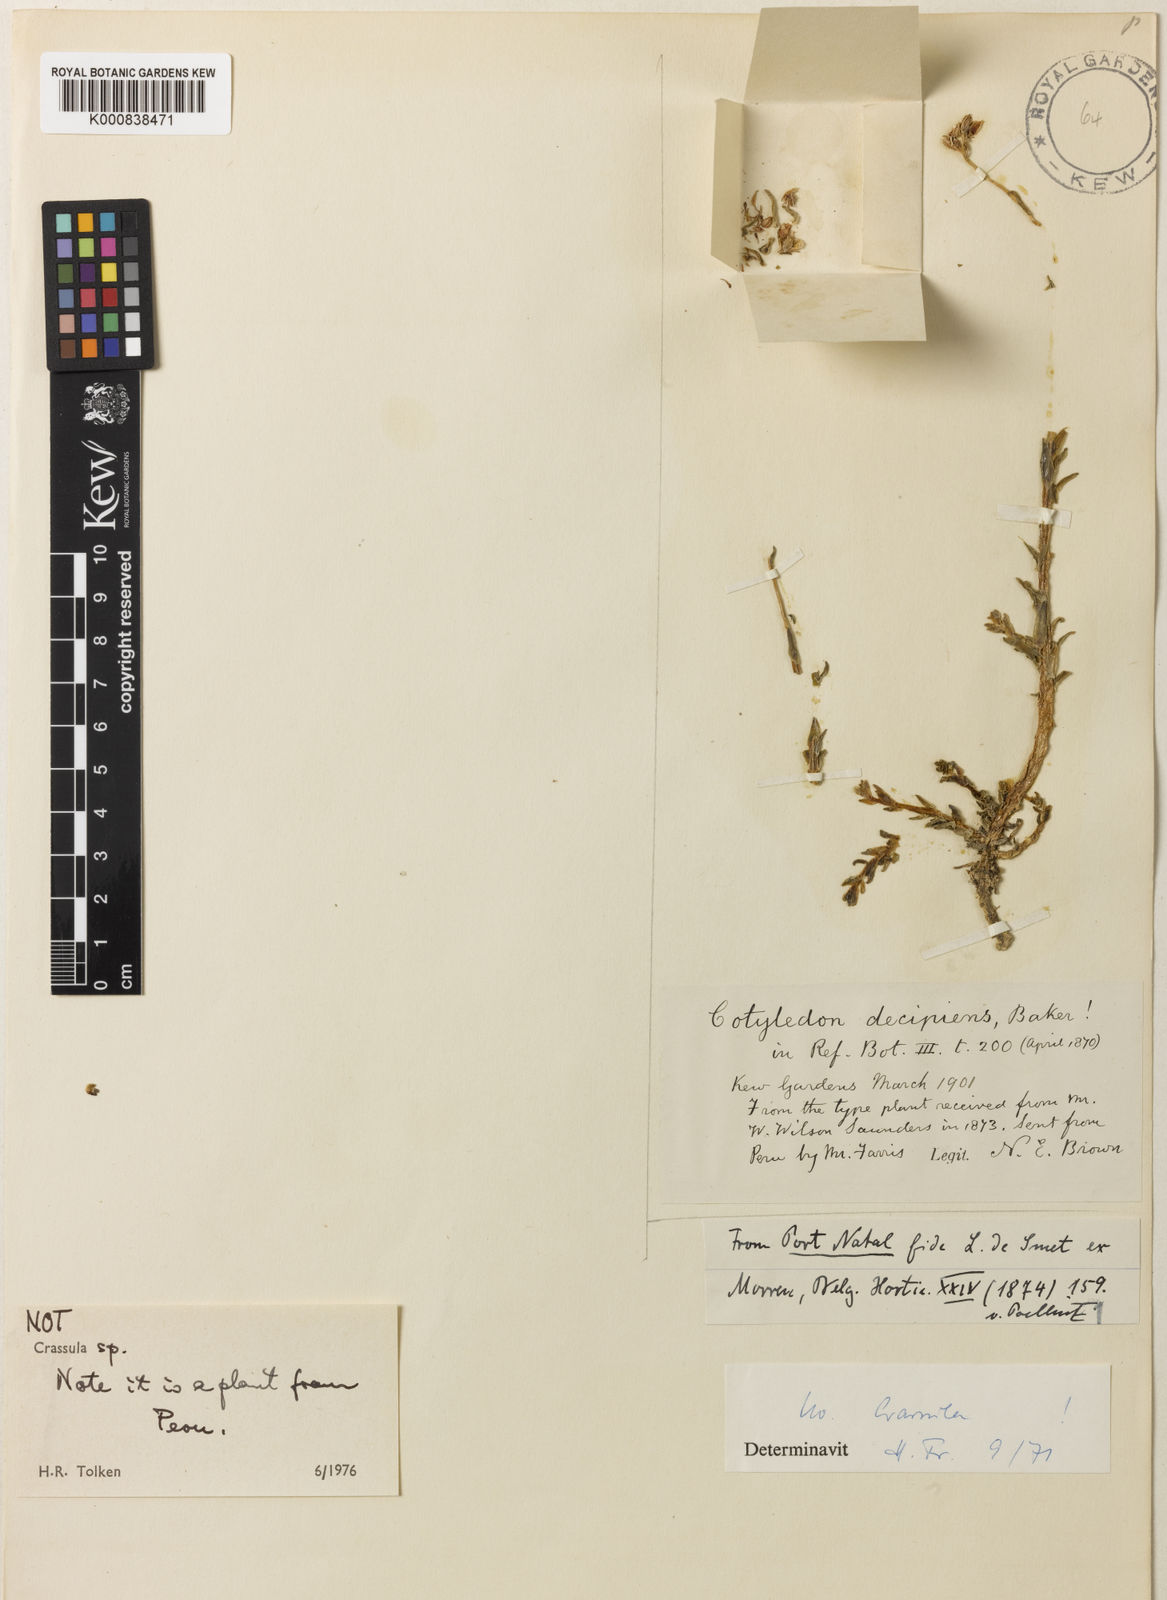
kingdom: Plantae
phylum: Tracheophyta
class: Magnoliopsida
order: Saxifragales
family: Crassulaceae
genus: Sedum
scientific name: Sedum decipiens
